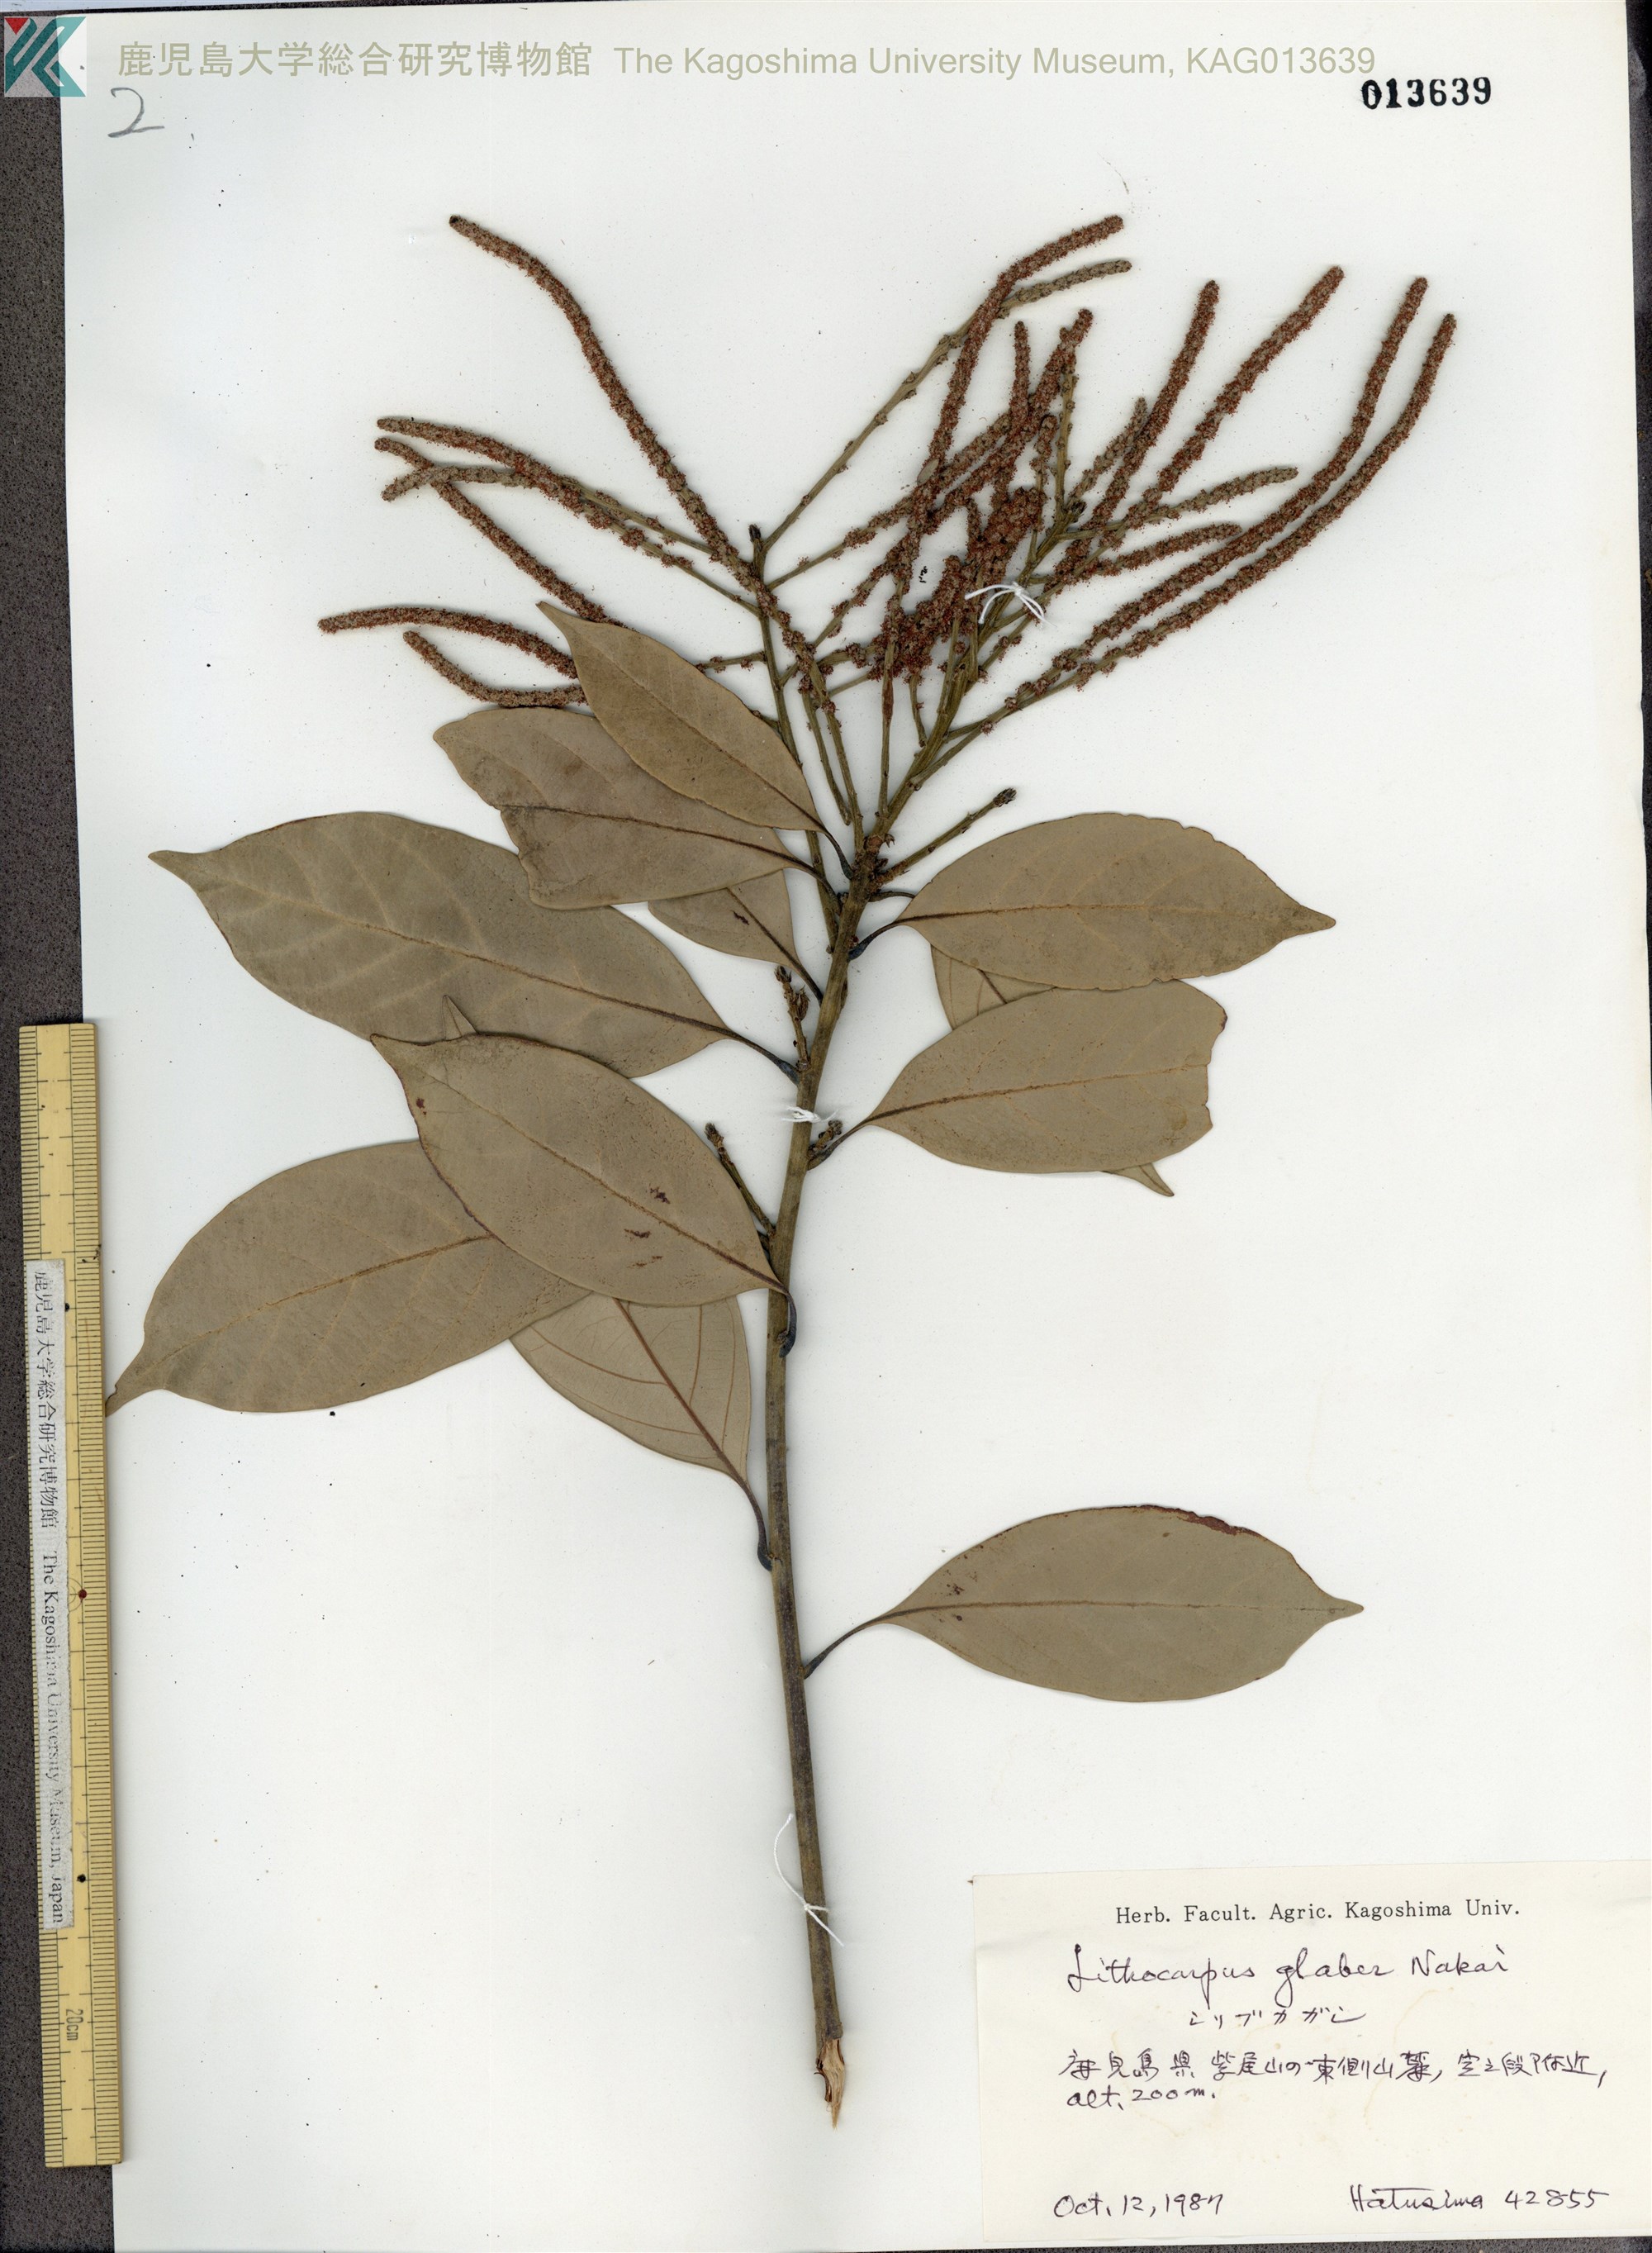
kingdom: Plantae
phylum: Tracheophyta
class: Magnoliopsida
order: Fagales
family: Fagaceae
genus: Lithocarpus
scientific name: Lithocarpus glaber
